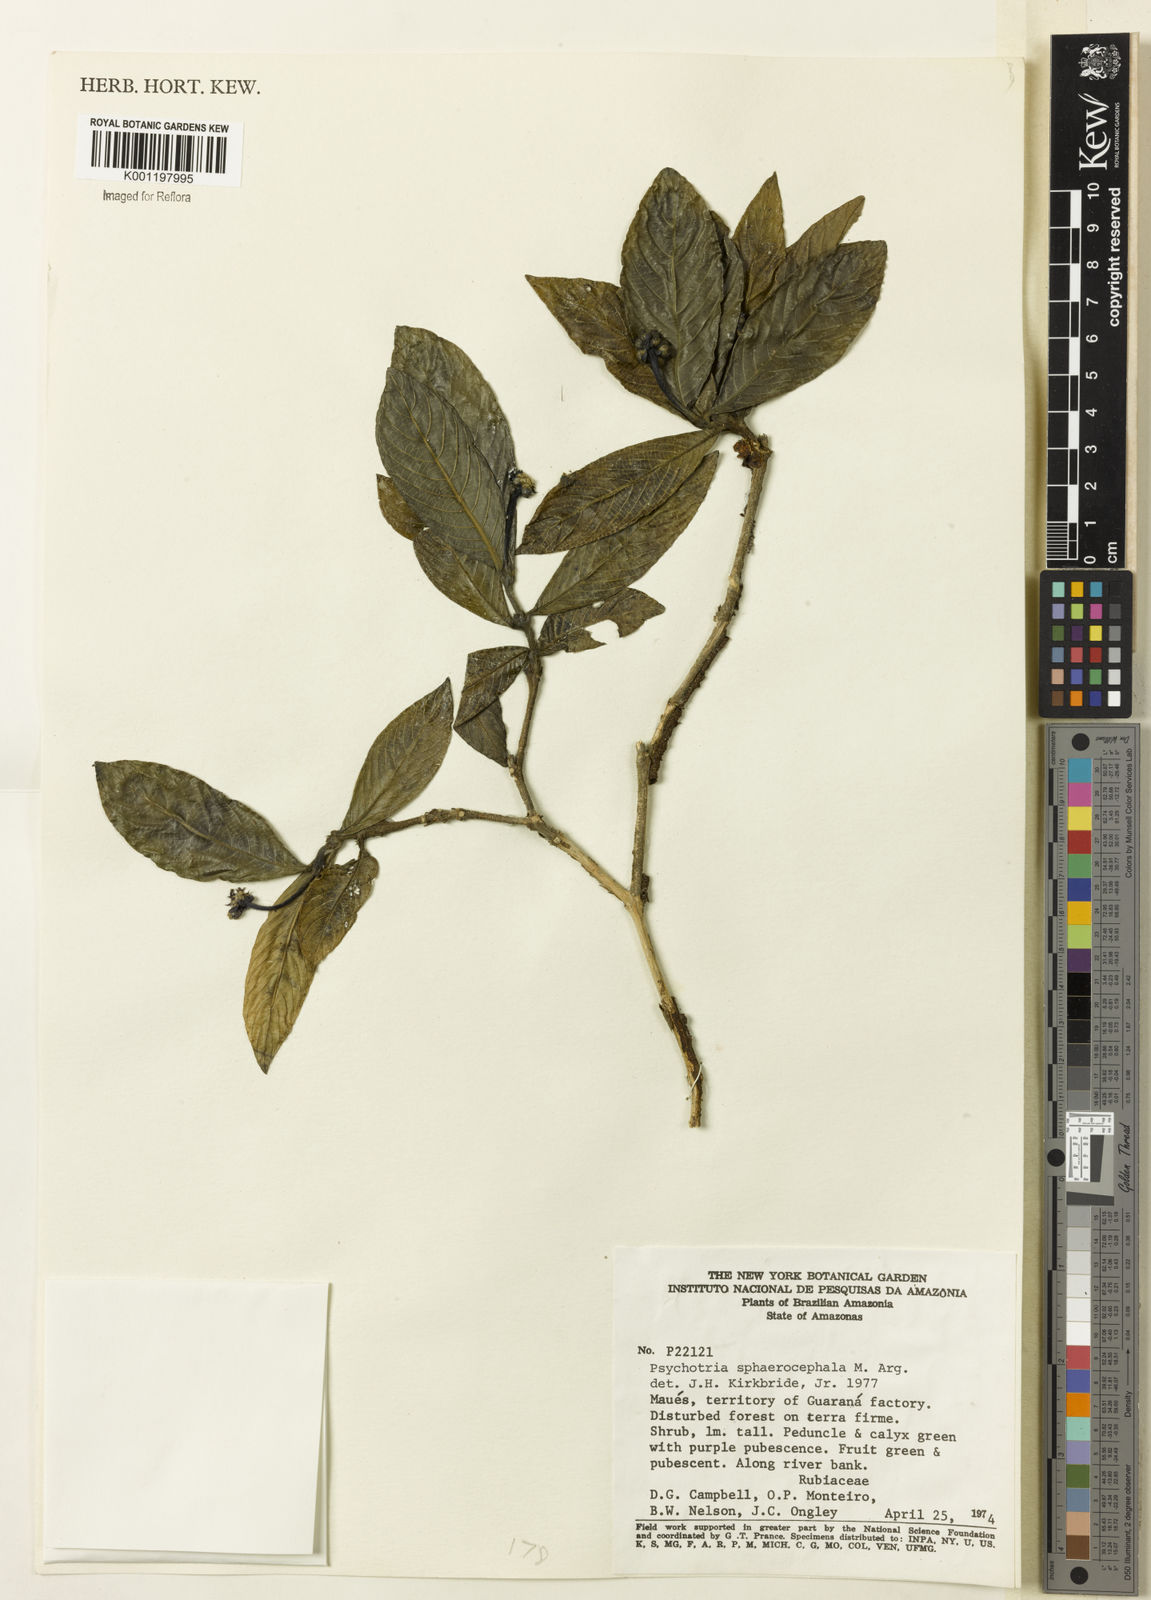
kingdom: Plantae
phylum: Tracheophyta
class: Magnoliopsida
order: Gentianales
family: Rubiaceae
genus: Psychotria
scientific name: Psychotria
